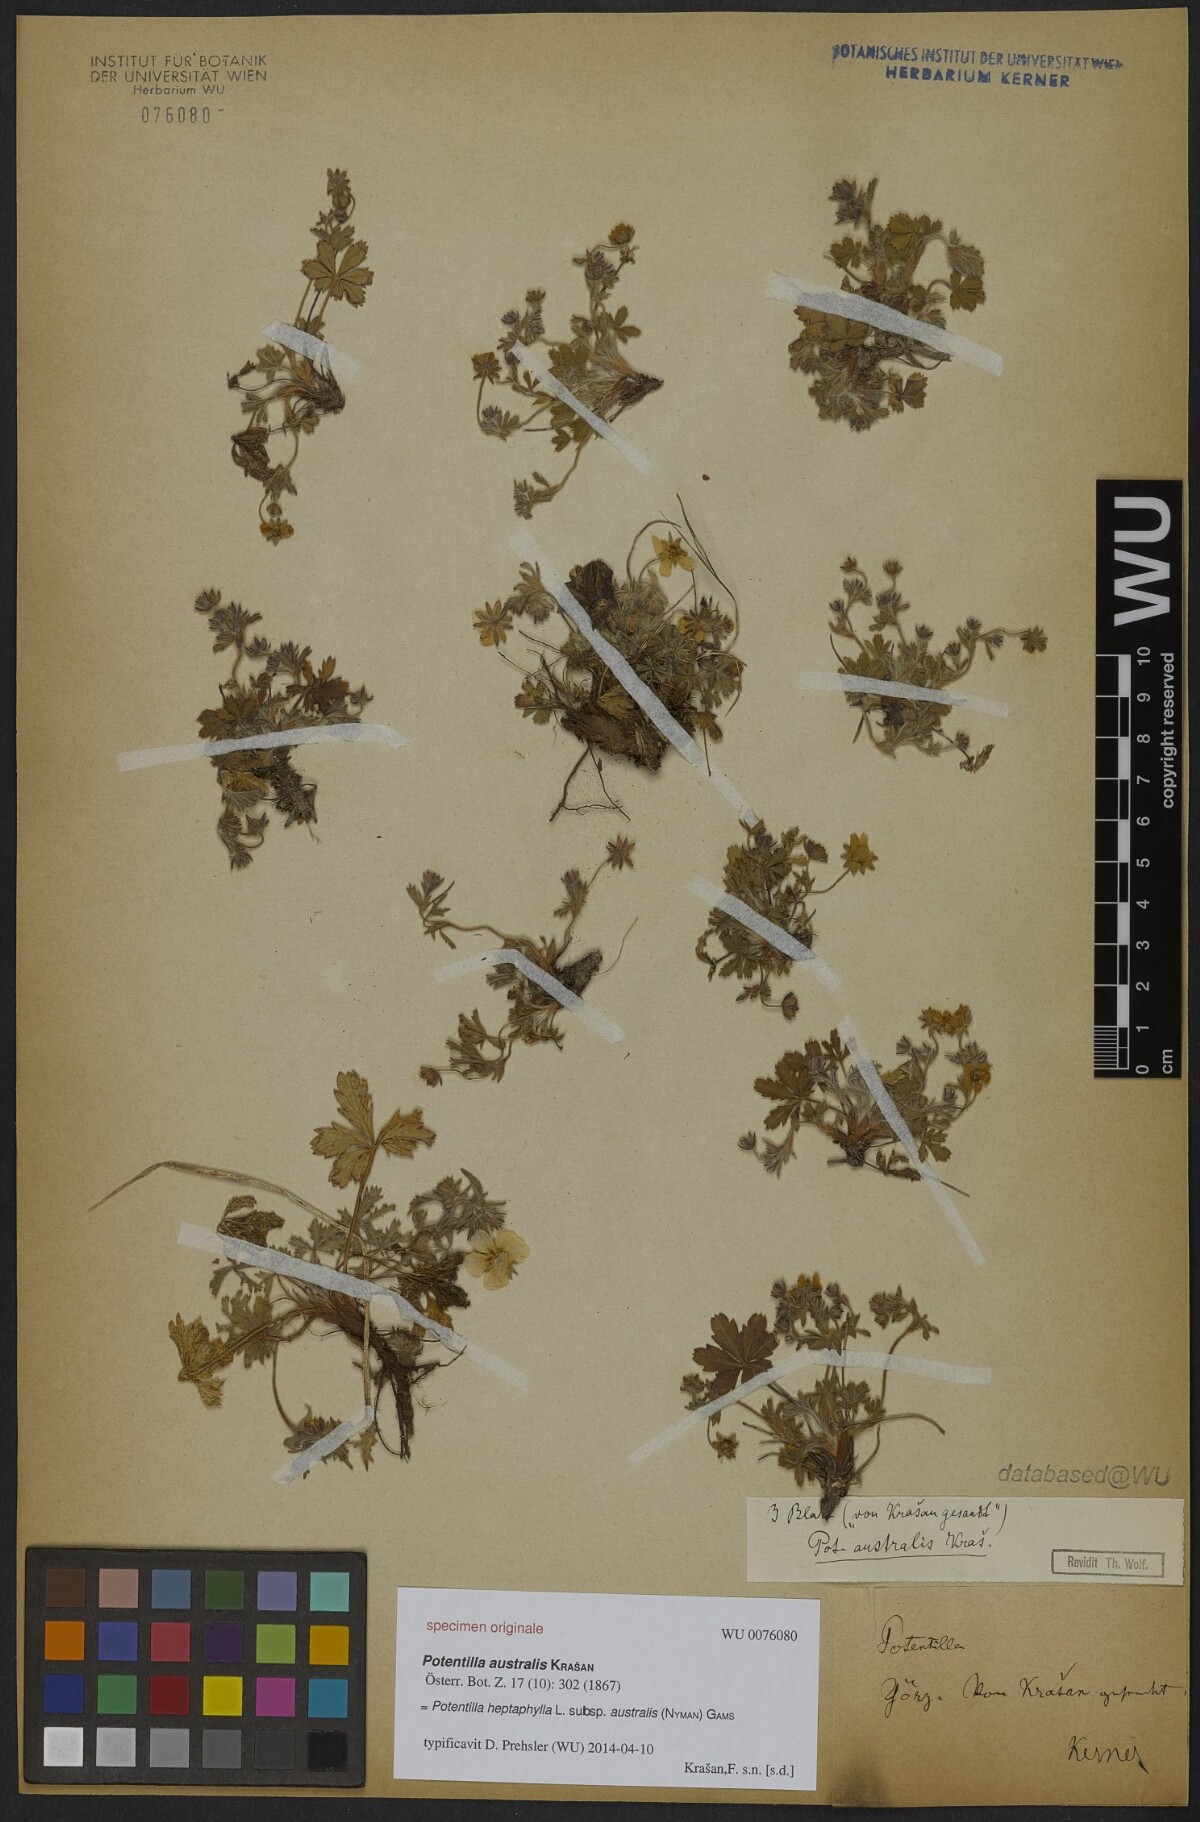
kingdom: Plantae
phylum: Tracheophyta
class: Magnoliopsida
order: Rosales
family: Rosaceae
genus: Potentilla
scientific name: Potentilla heptaphylla
